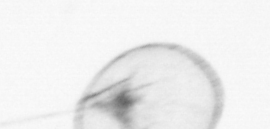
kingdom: Chromista
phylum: Myzozoa
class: Dinophyceae
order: Noctilucales
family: Noctilucaceae
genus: Noctiluca
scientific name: Noctiluca scintillans
